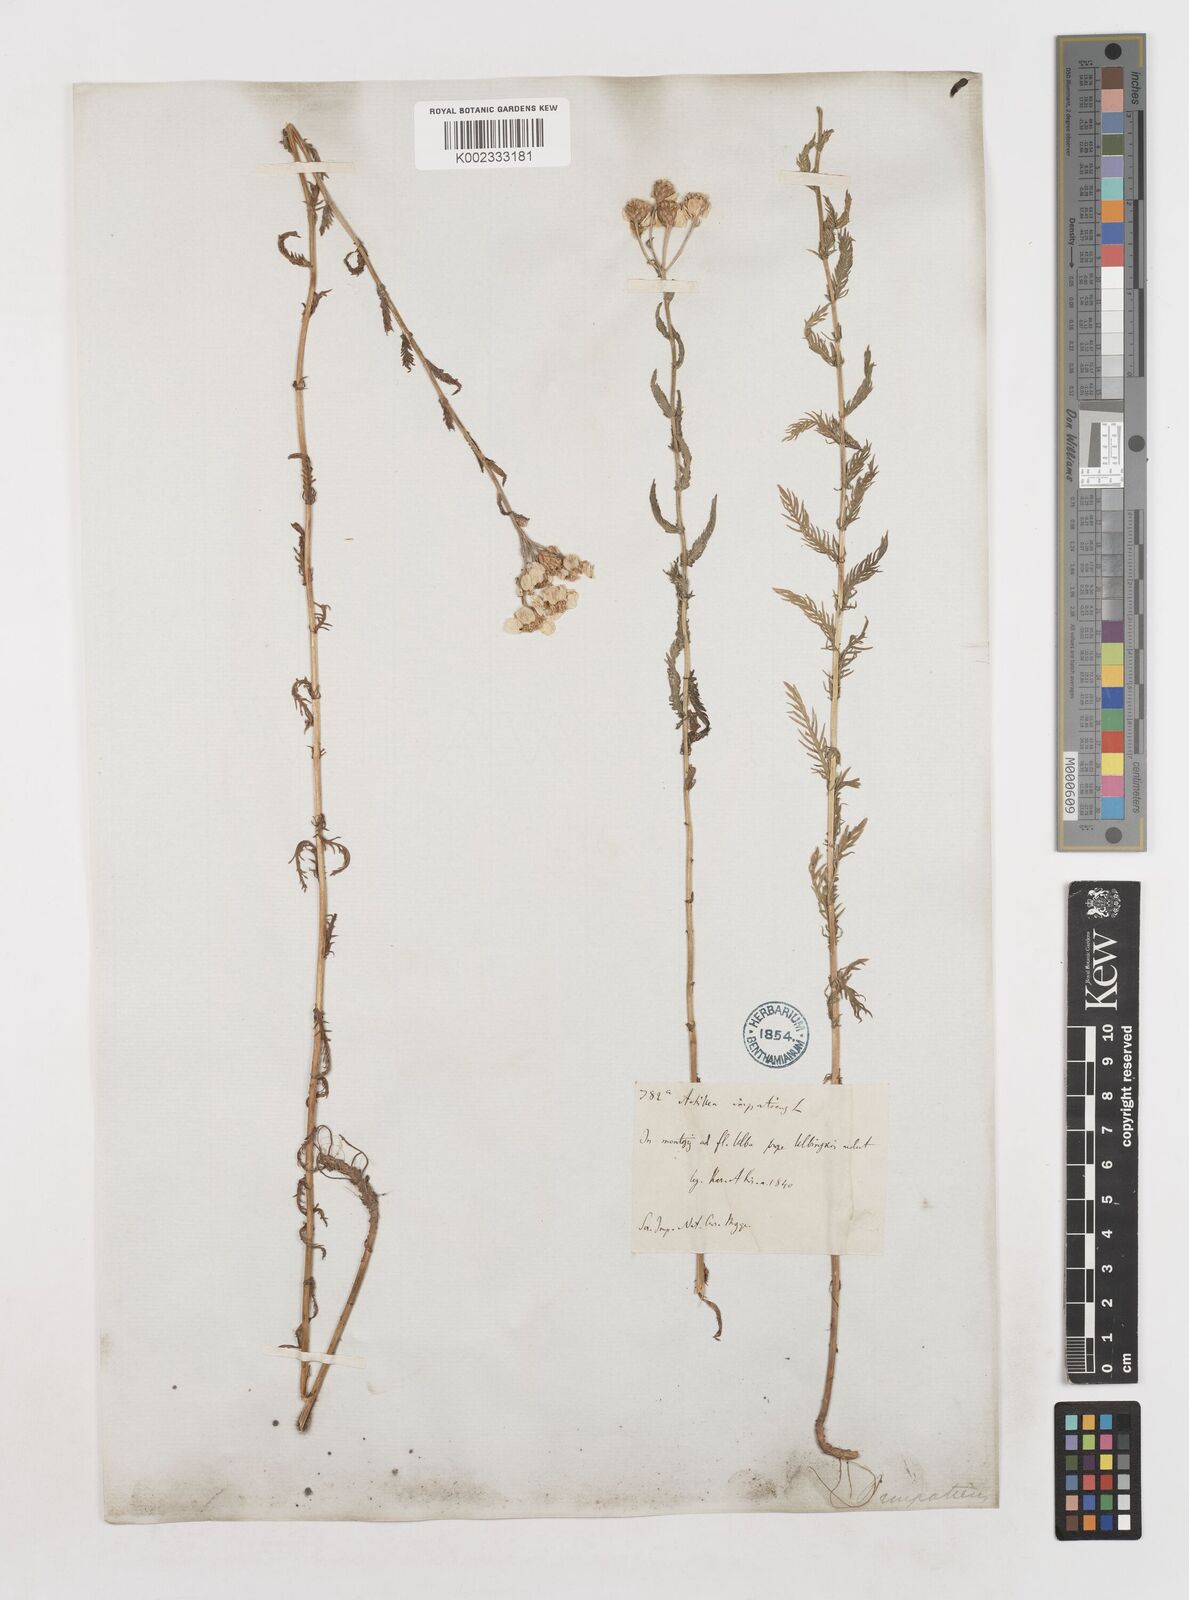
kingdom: Plantae
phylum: Tracheophyta
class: Magnoliopsida
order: Asterales
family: Asteraceae
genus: Achillea
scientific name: Achillea impatiens
